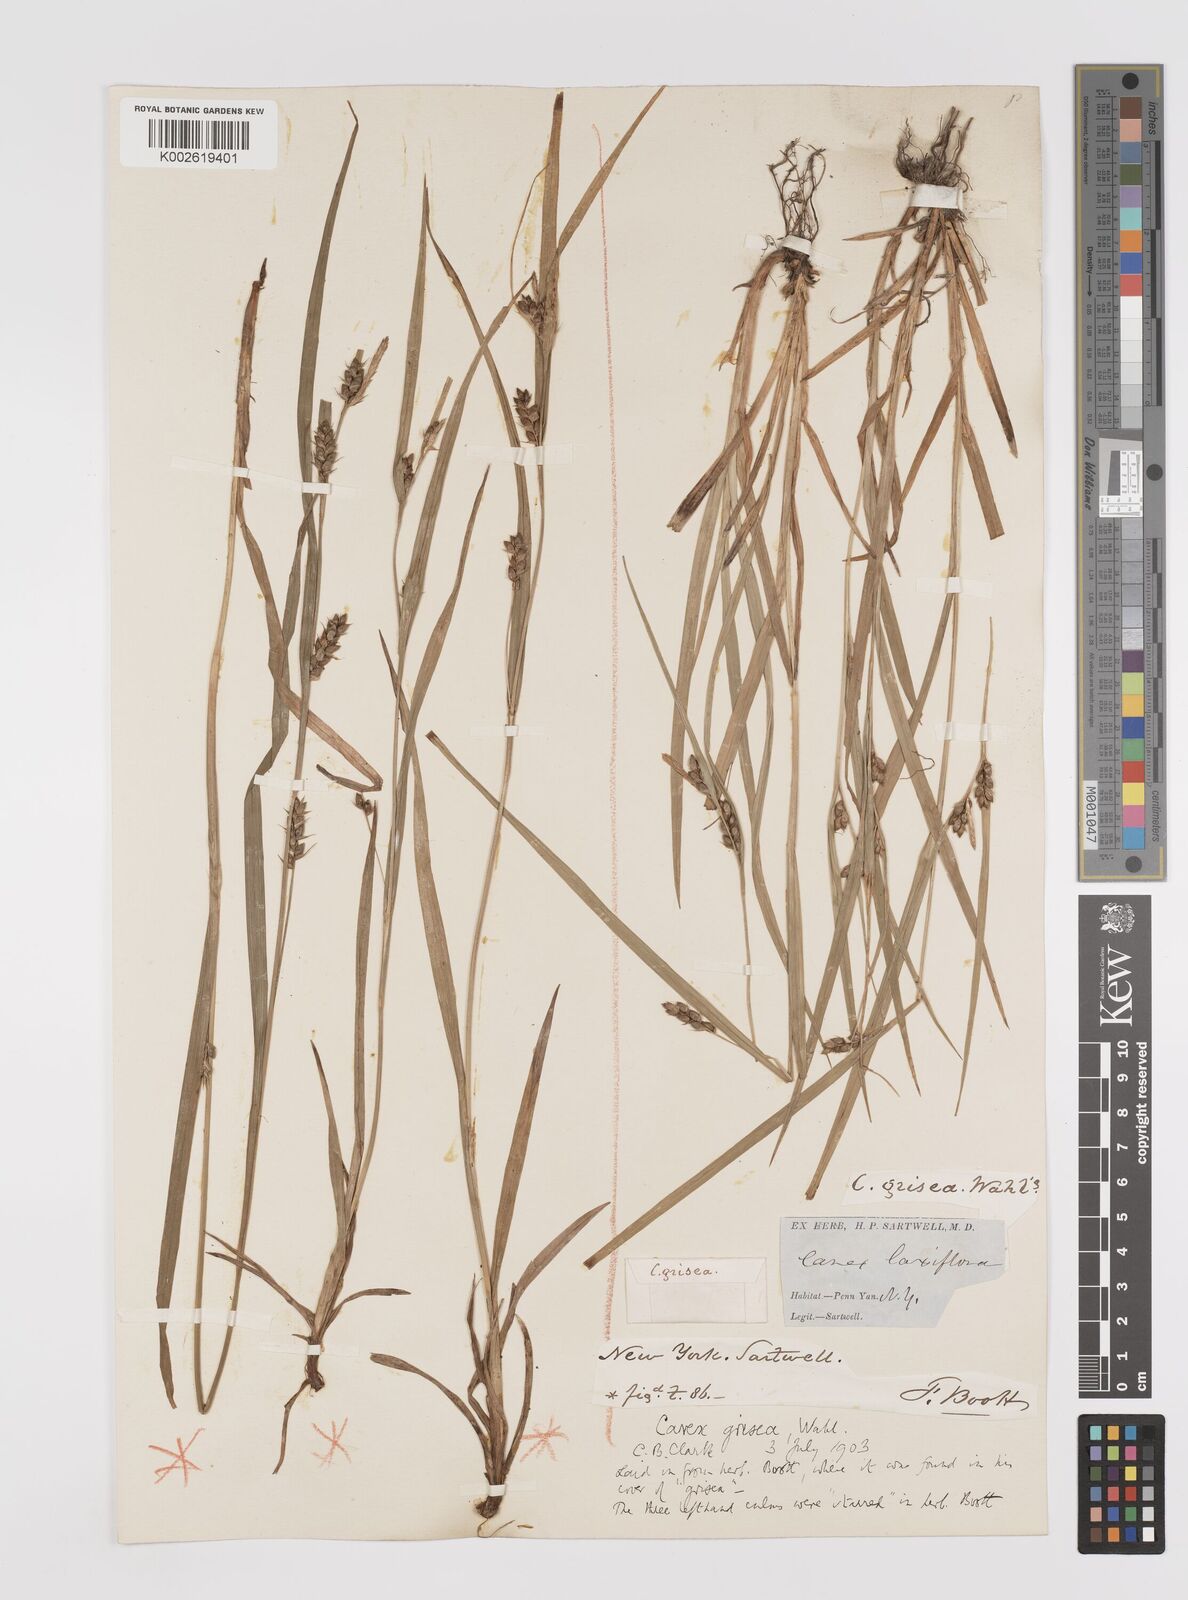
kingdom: Plantae
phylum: Tracheophyta
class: Liliopsida
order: Poales
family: Cyperaceae
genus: Carex
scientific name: Carex grisea
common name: Eastern narrow-leaved sedge
